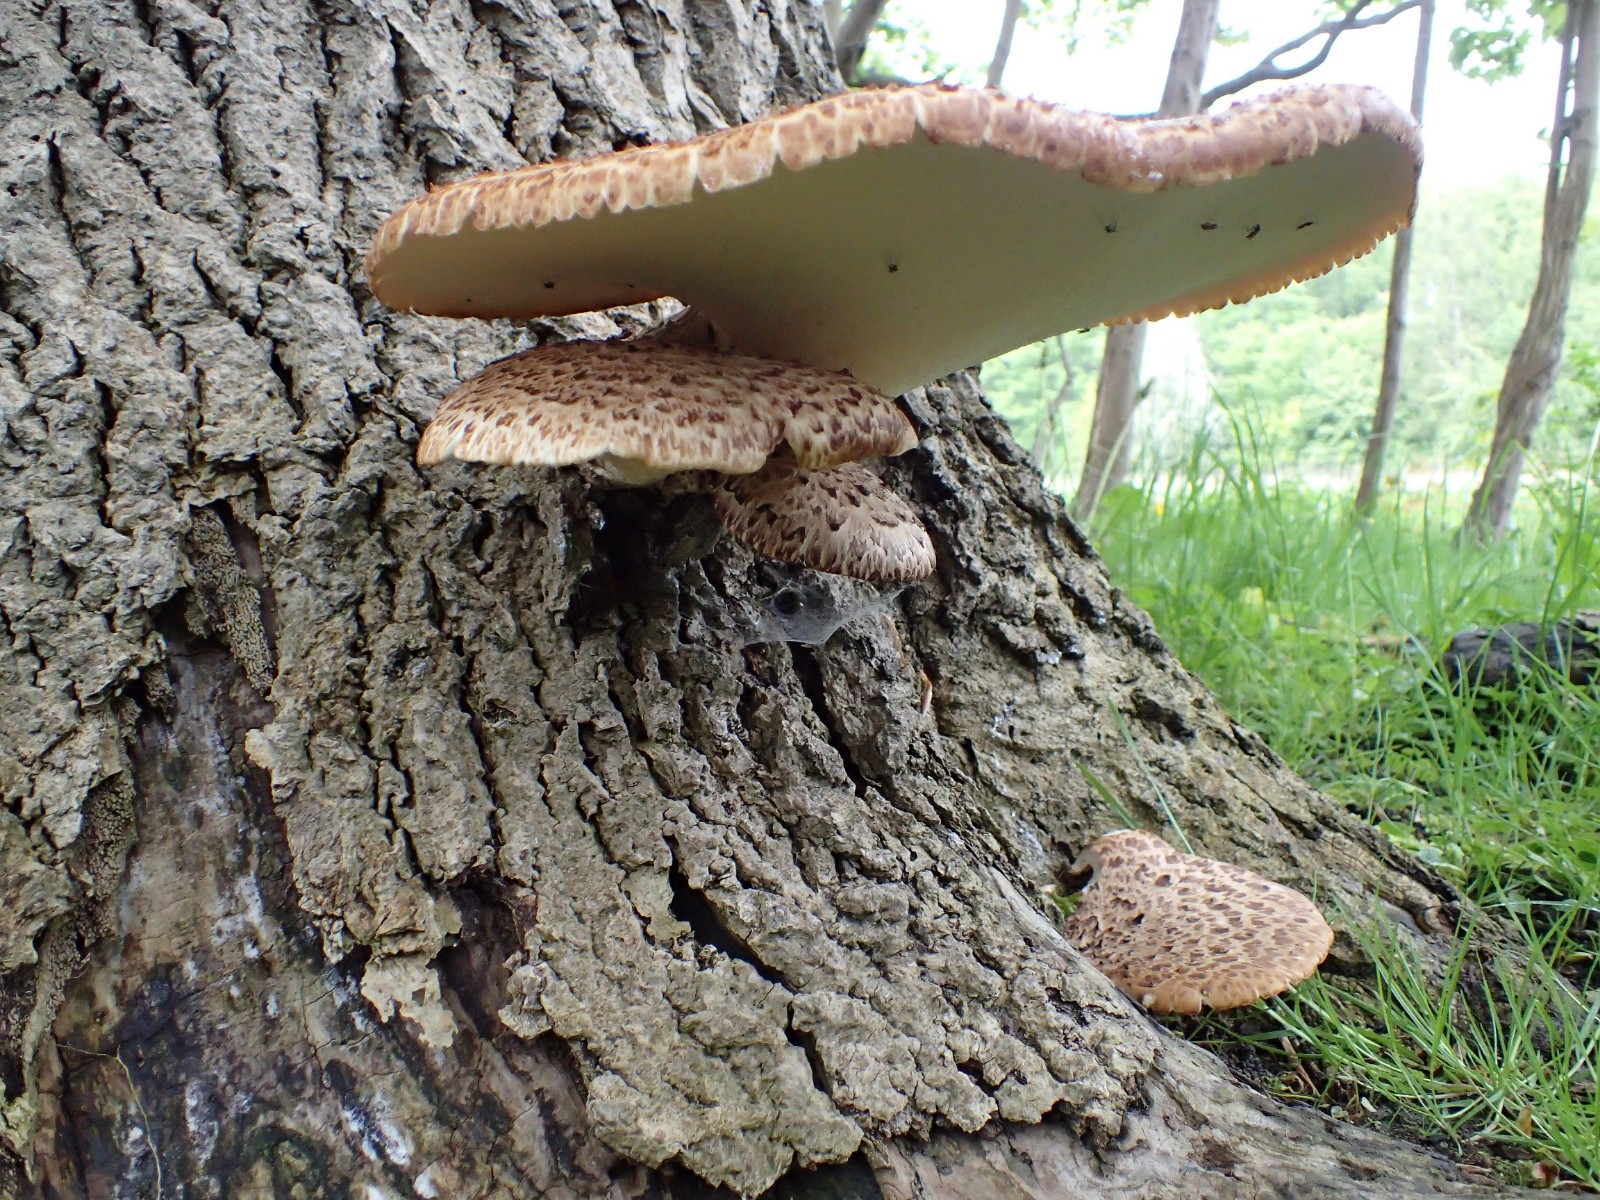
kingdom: Fungi
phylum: Basidiomycota
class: Agaricomycetes
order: Polyporales
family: Polyporaceae
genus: Cerioporus
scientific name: Cerioporus squamosus
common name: skællet stilkporesvamp
